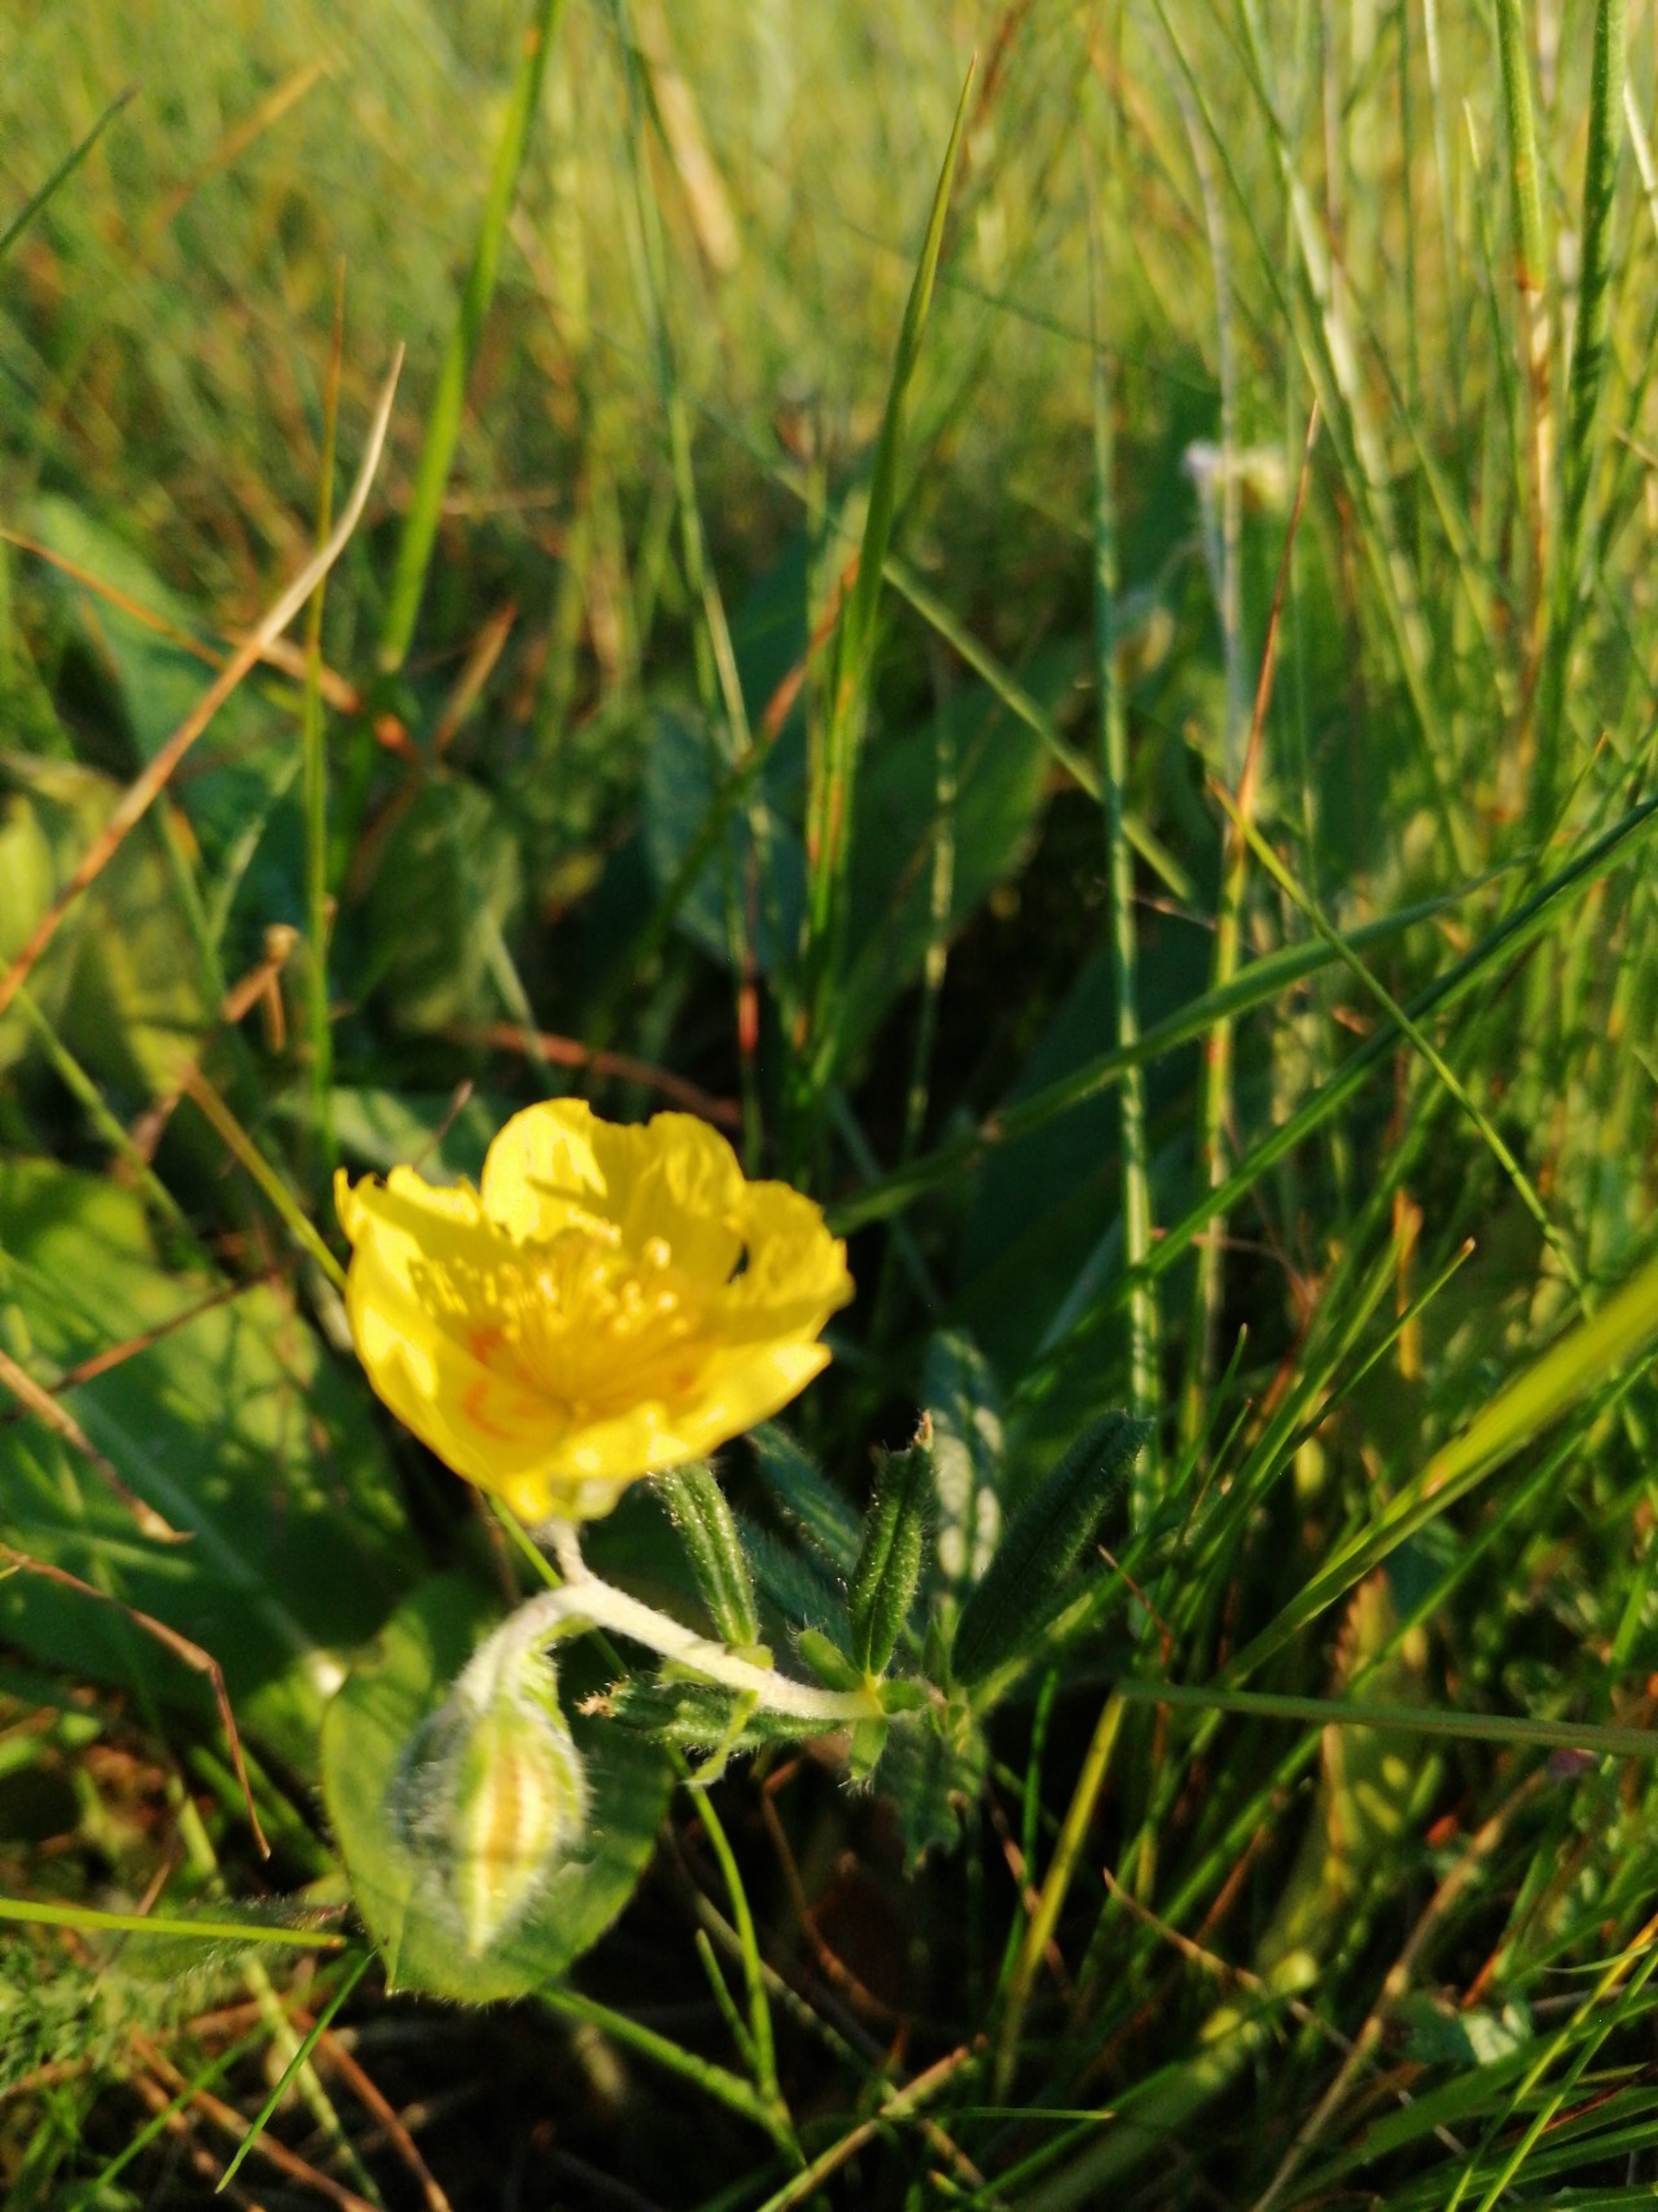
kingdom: Plantae
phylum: Tracheophyta
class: Magnoliopsida
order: Malvales
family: Cistaceae
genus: Helianthemum
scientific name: Helianthemum nummularium
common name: Soløje
